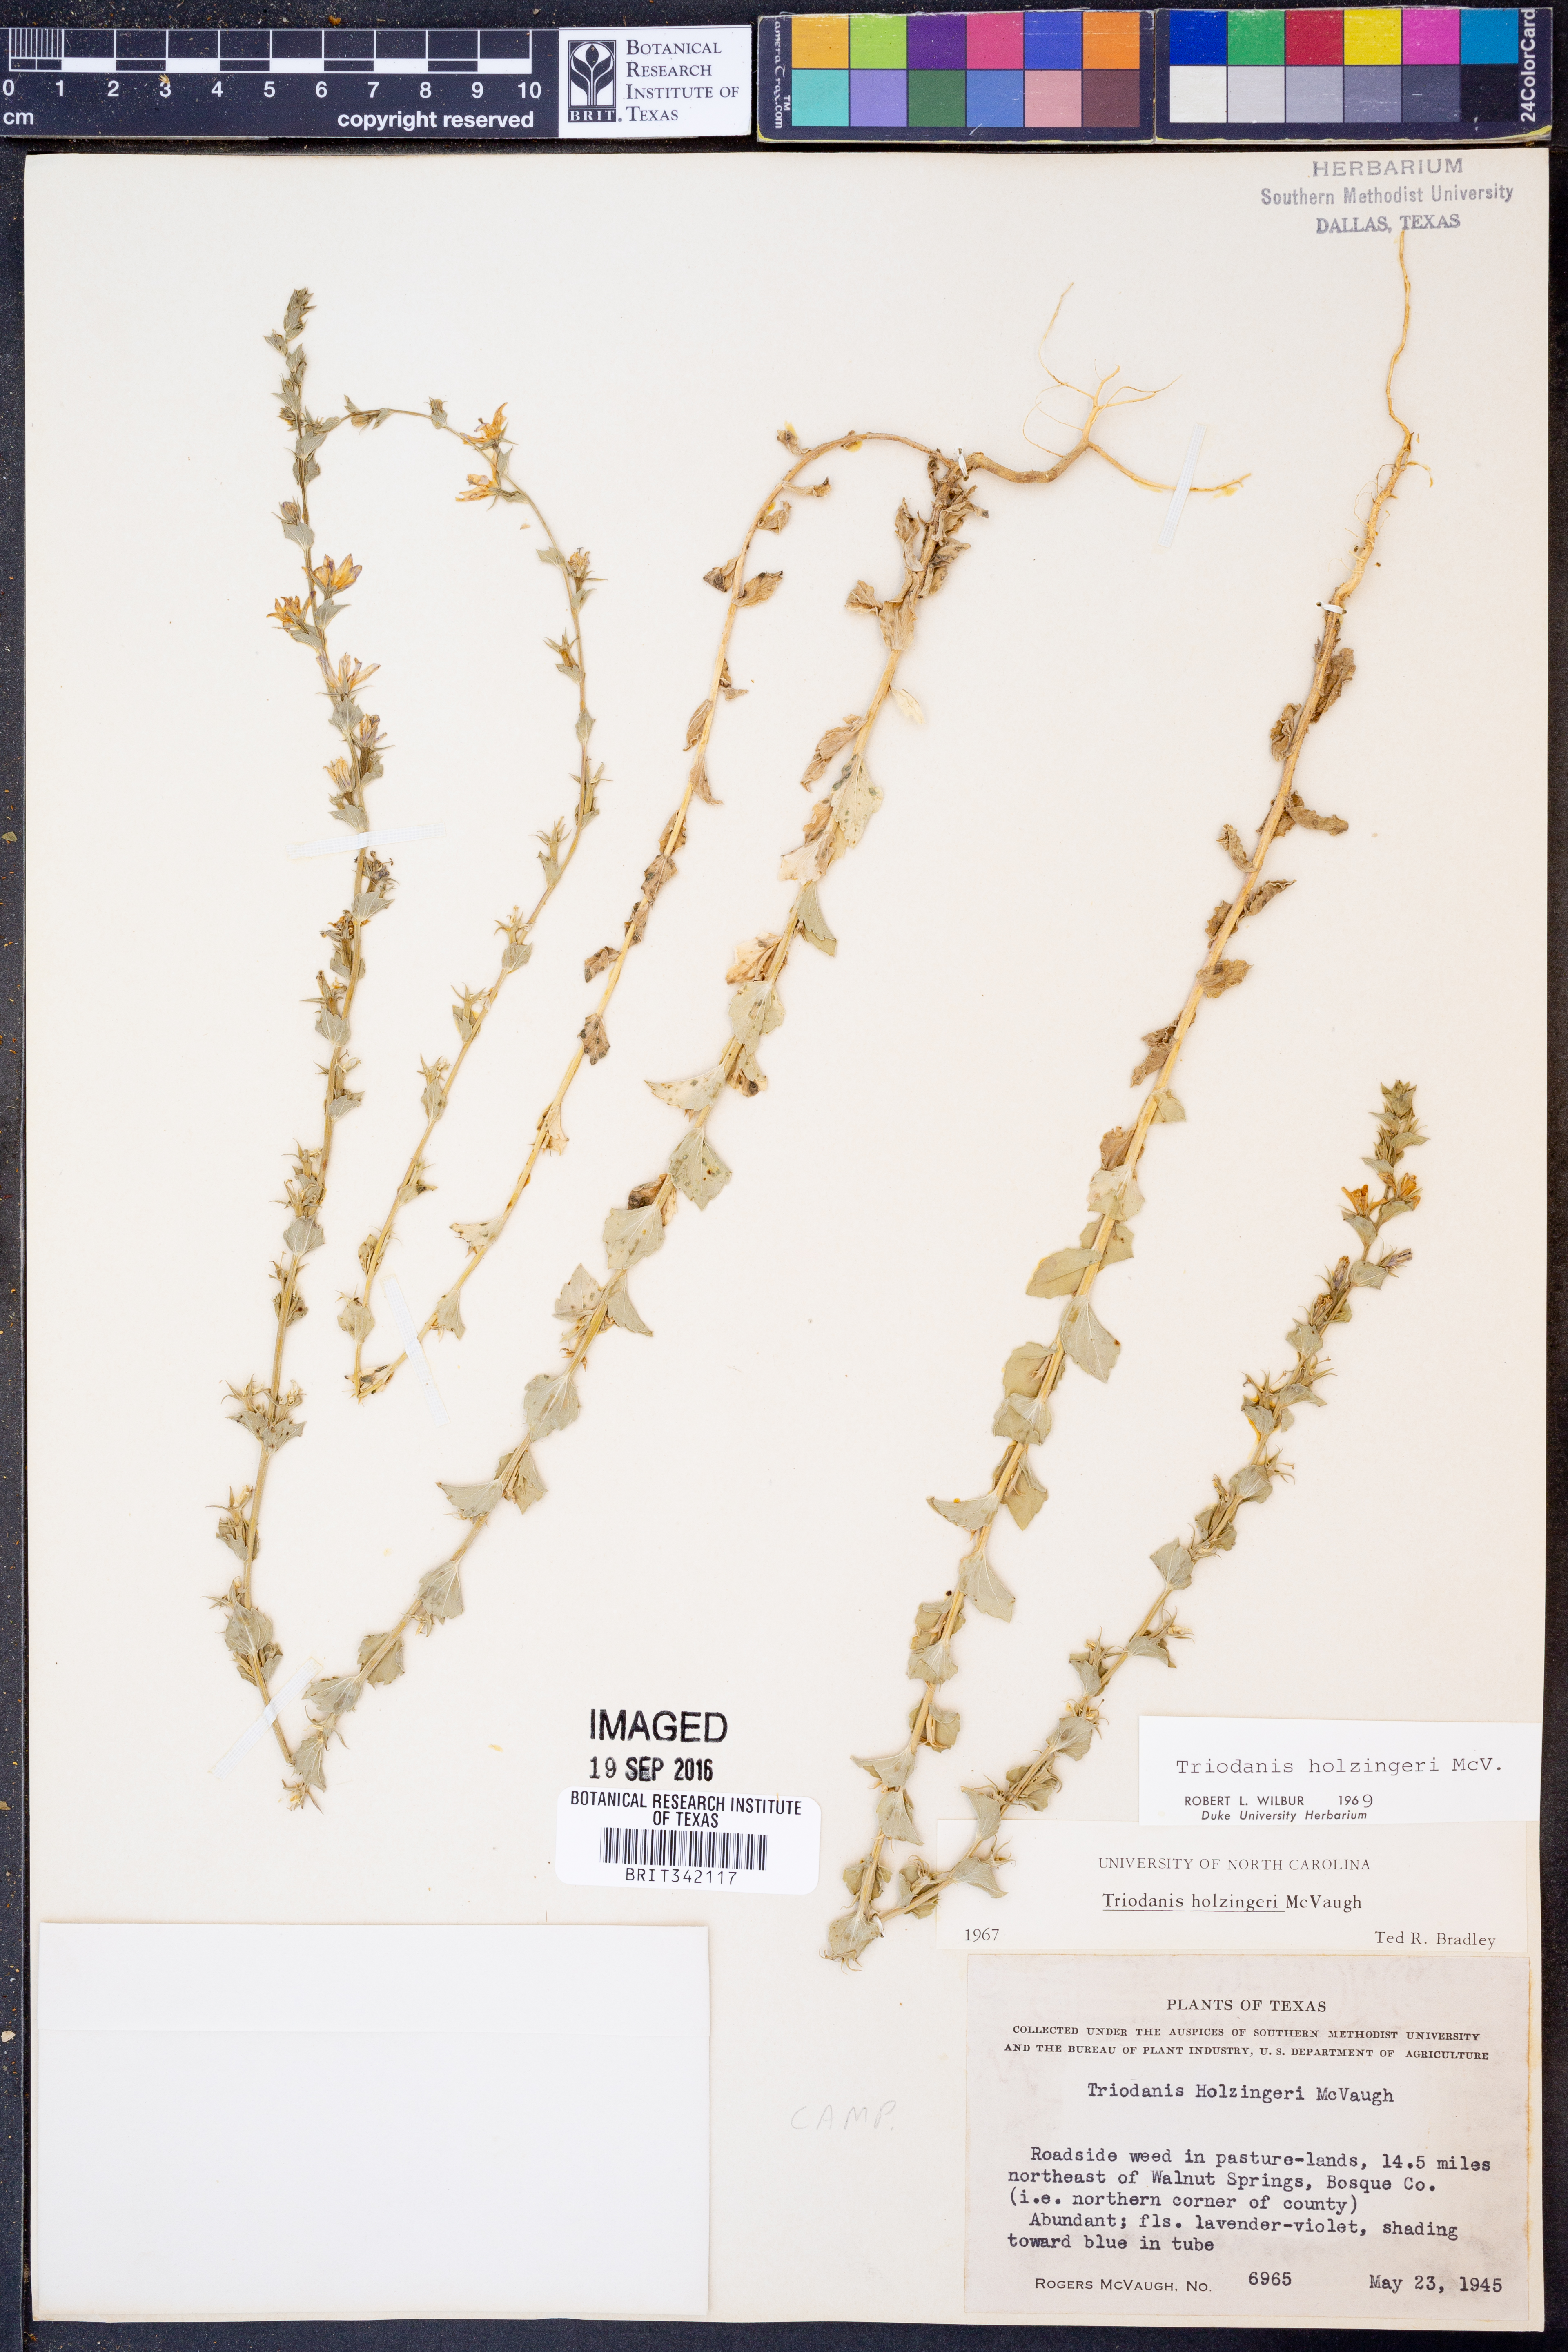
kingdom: Plantae
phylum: Tracheophyta
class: Magnoliopsida
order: Asterales
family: Campanulaceae
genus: Triodanis
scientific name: Triodanis holzingeri
